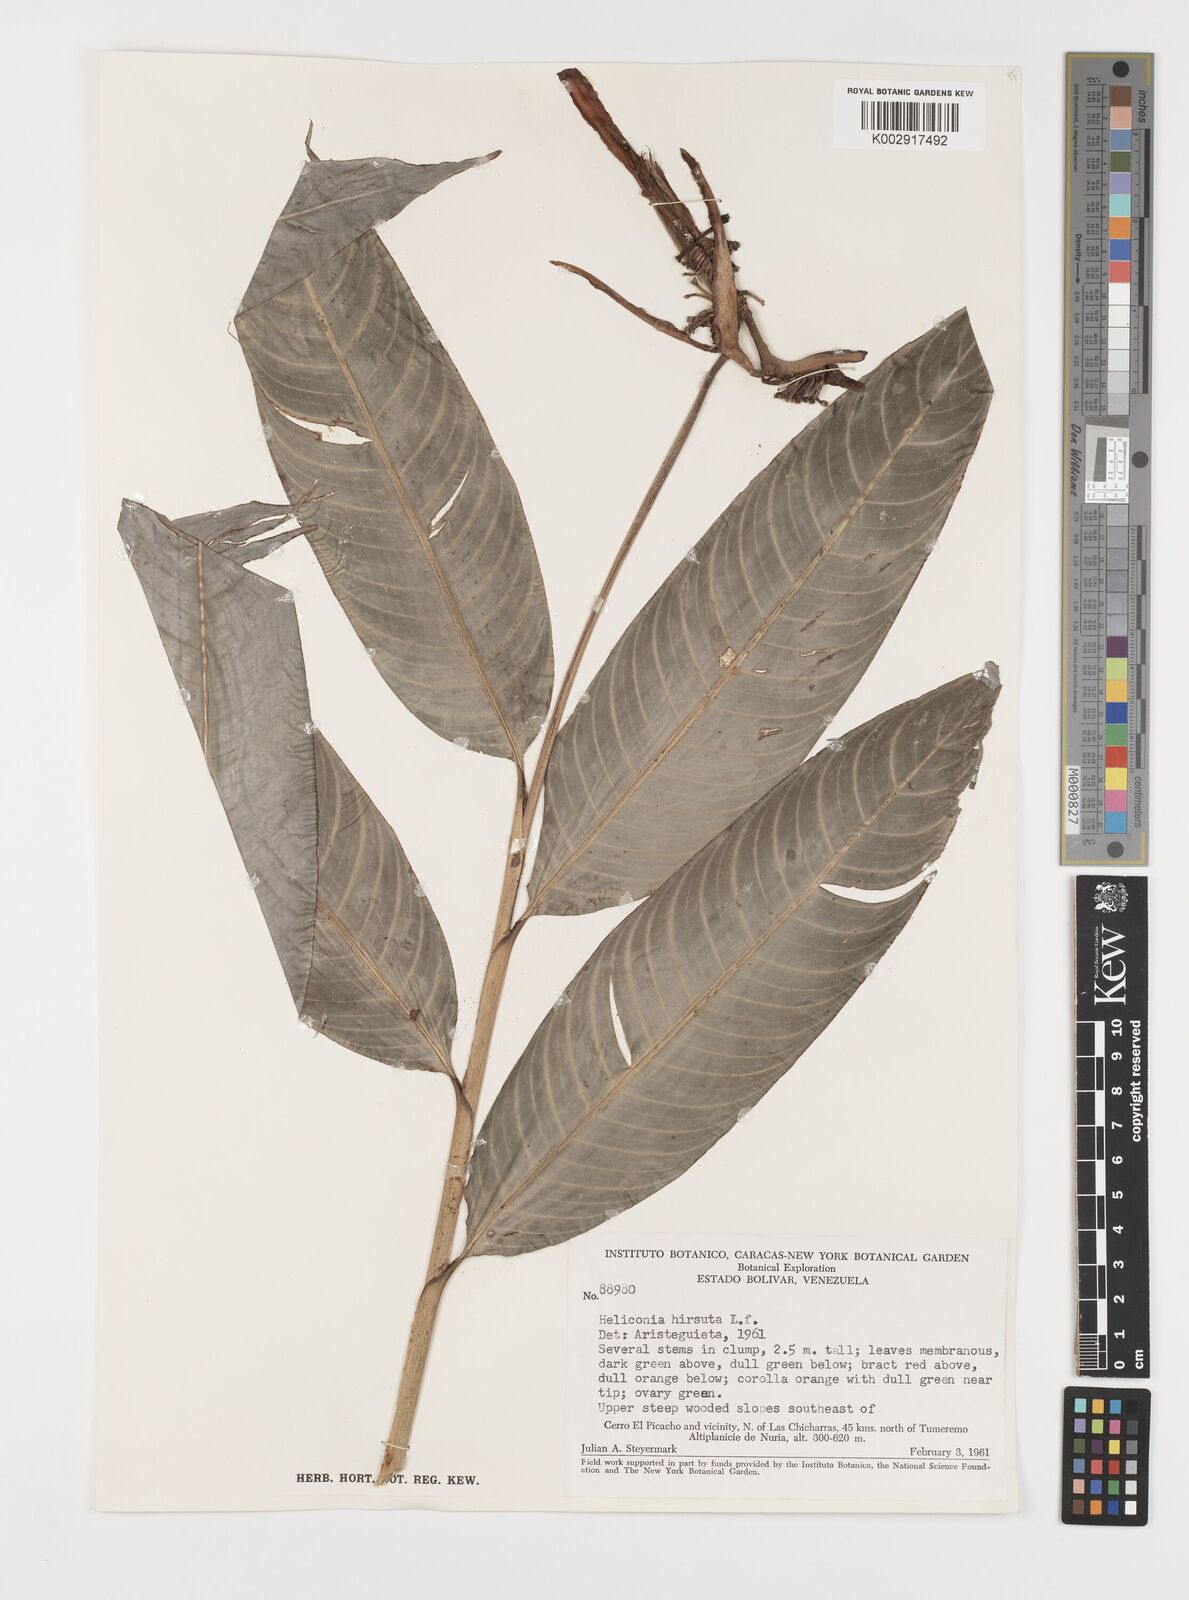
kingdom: Plantae
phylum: Tracheophyta
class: Liliopsida
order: Zingiberales
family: Heliconiaceae
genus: Heliconia
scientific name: Heliconia hirsuta
